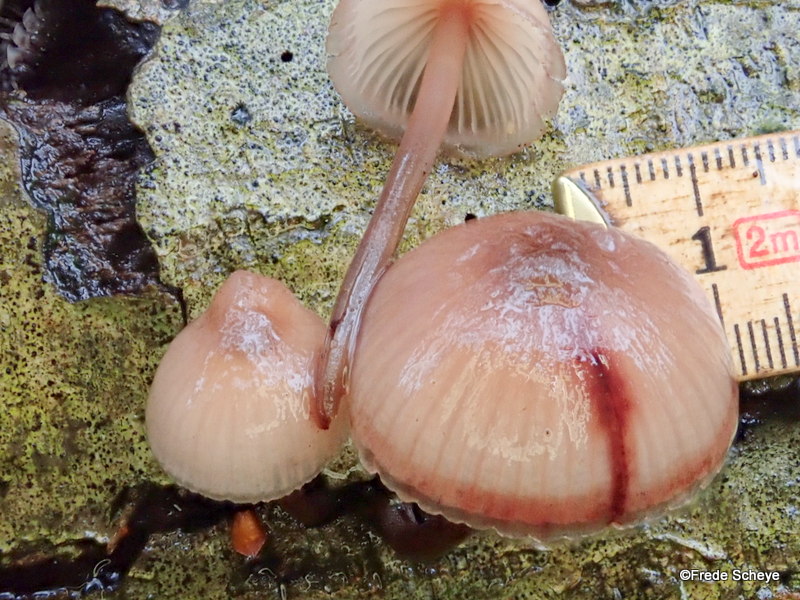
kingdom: Fungi
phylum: Basidiomycota
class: Agaricomycetes
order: Agaricales
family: Mycenaceae
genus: Mycena
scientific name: Mycena haematopus
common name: blødende huesvamp
